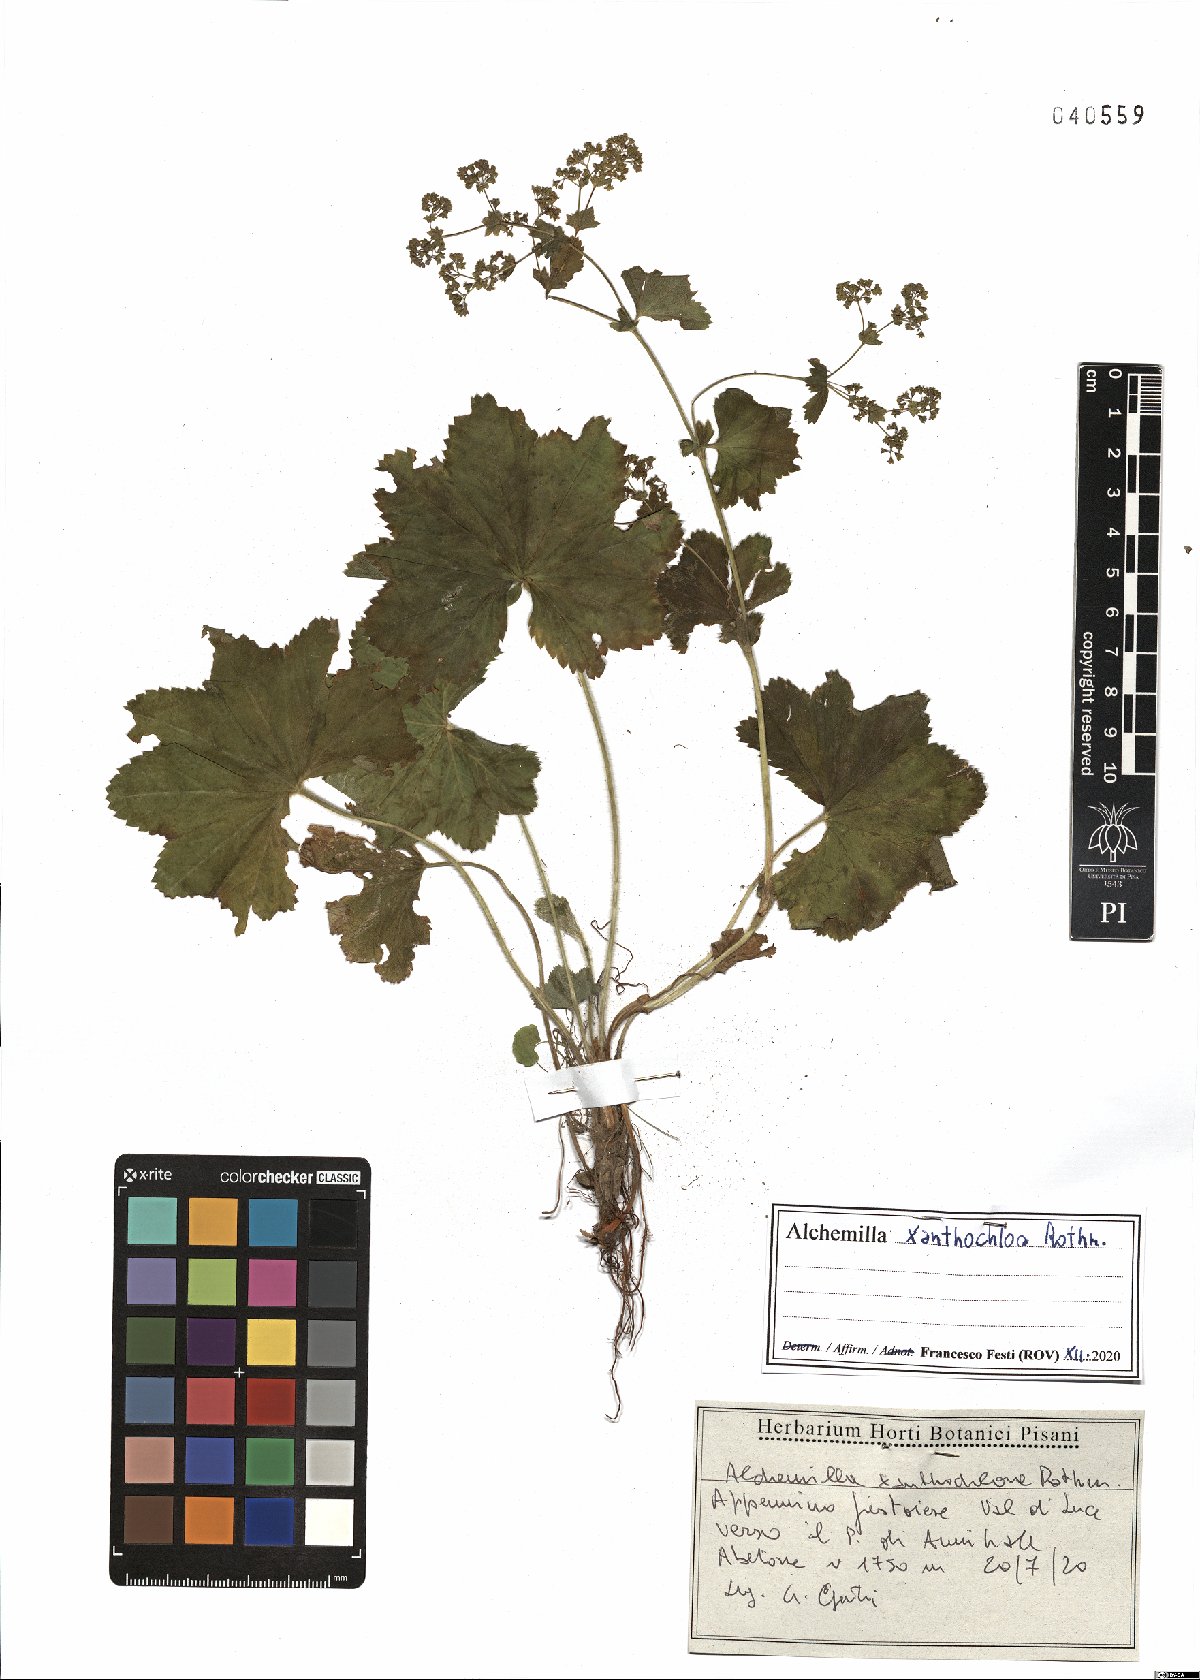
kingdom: Plantae
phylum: Tracheophyta
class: Magnoliopsida
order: Rosales
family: Rosaceae
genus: Alchemilla
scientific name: Alchemilla xanthochlora
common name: Intermediate lady's-mantle
